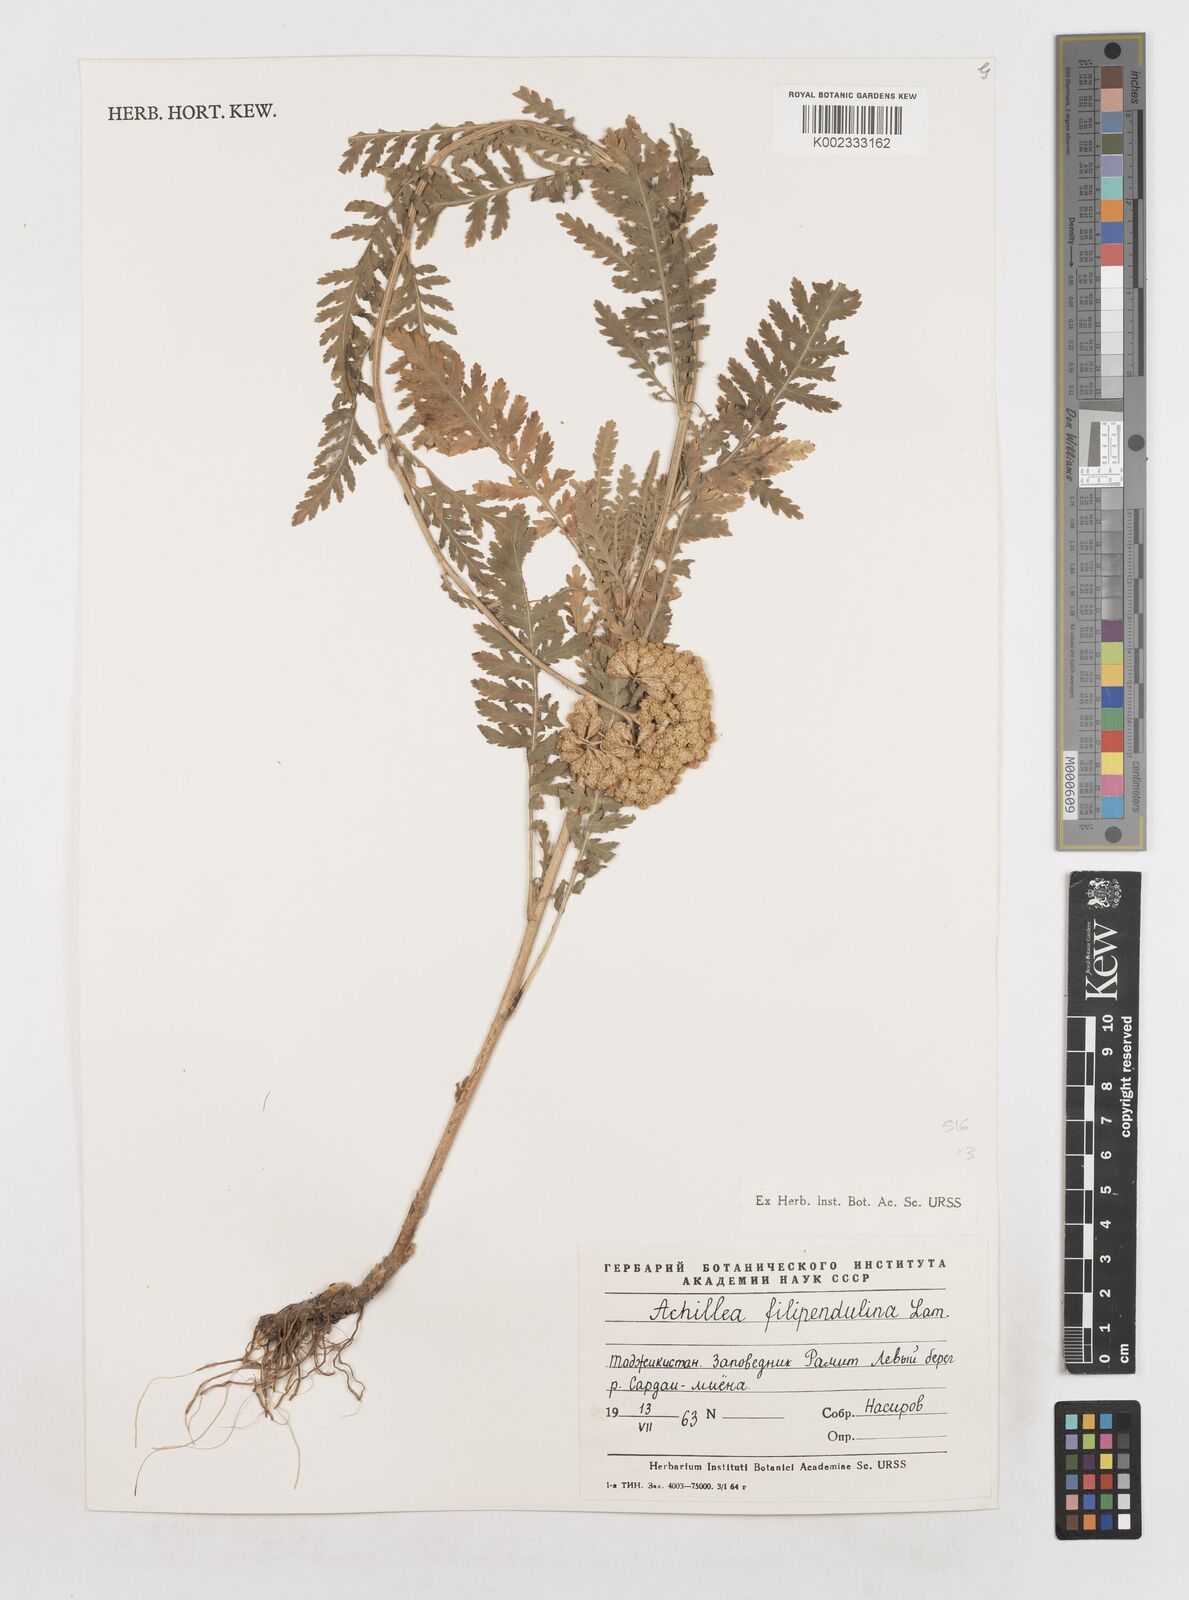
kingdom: Plantae
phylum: Tracheophyta
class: Magnoliopsida
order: Asterales
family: Asteraceae
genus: Achillea
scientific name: Achillea filipendulina
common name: Fernleaf yarrow
